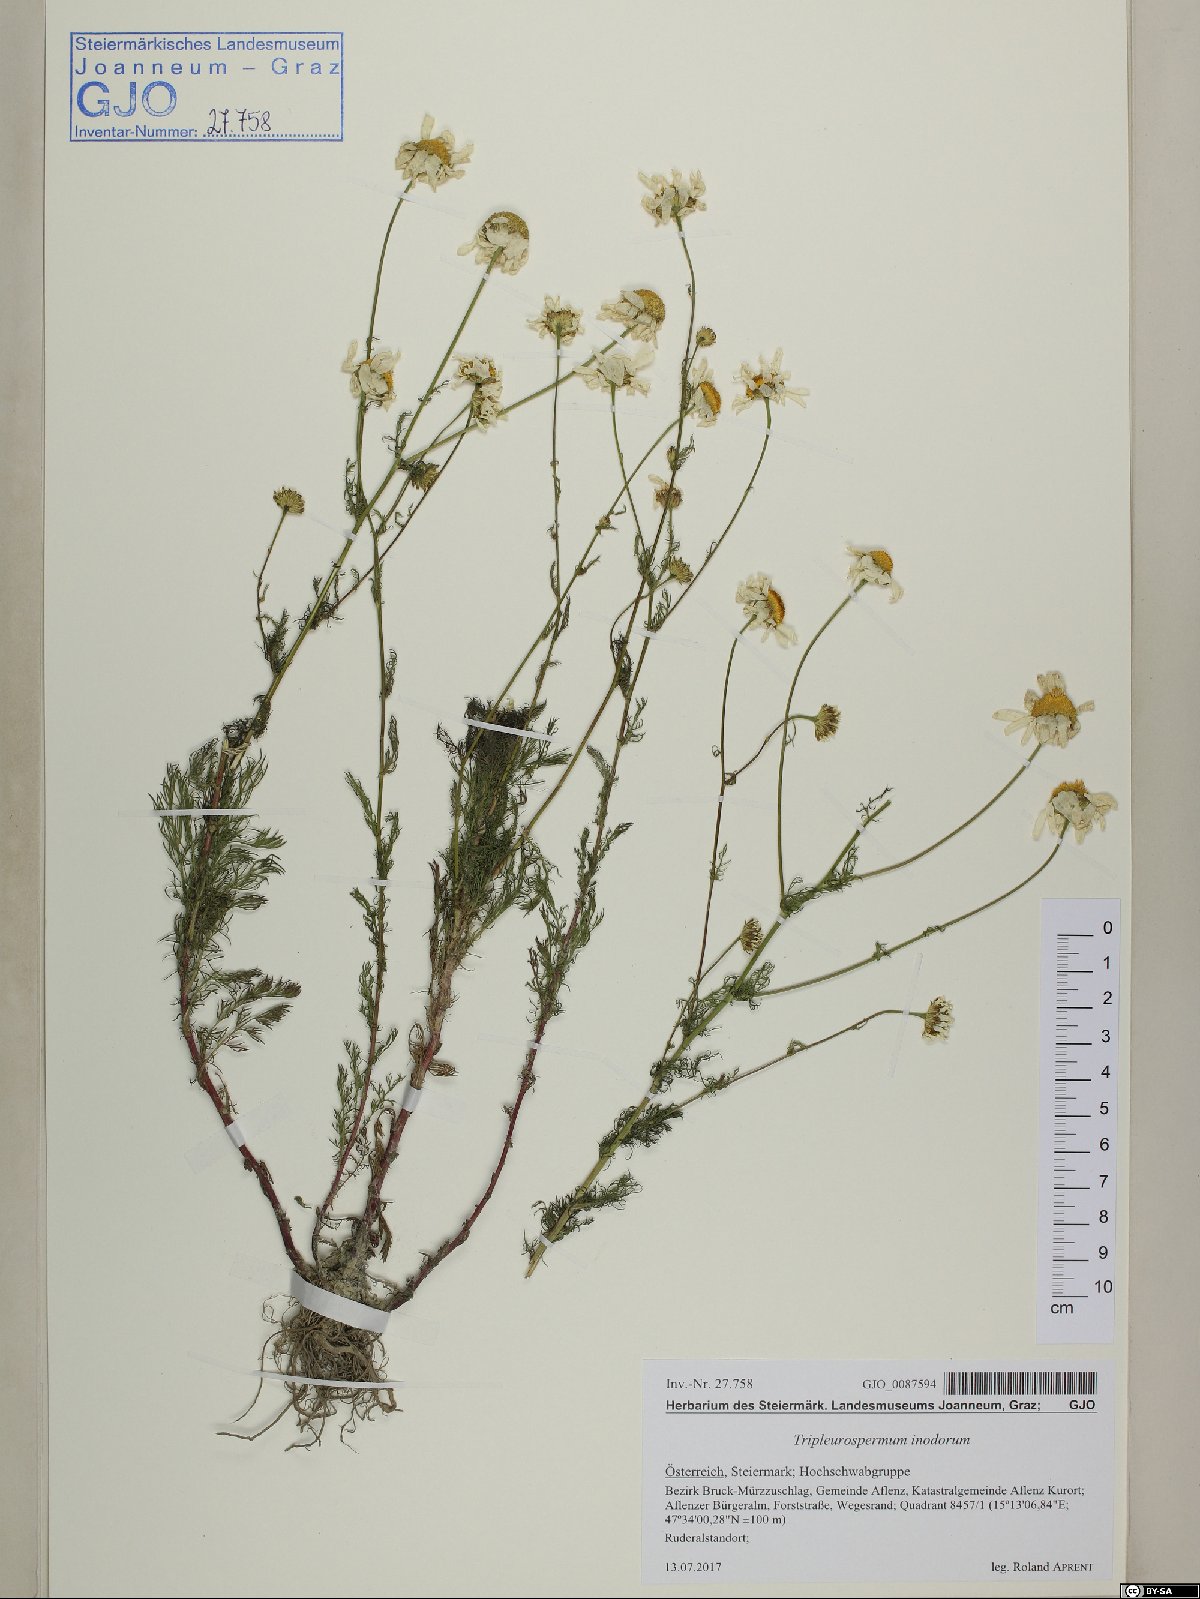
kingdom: Plantae
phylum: Tracheophyta
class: Magnoliopsida
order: Asterales
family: Asteraceae
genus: Tripleurospermum
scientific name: Tripleurospermum inodorum
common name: Scentless mayweed
